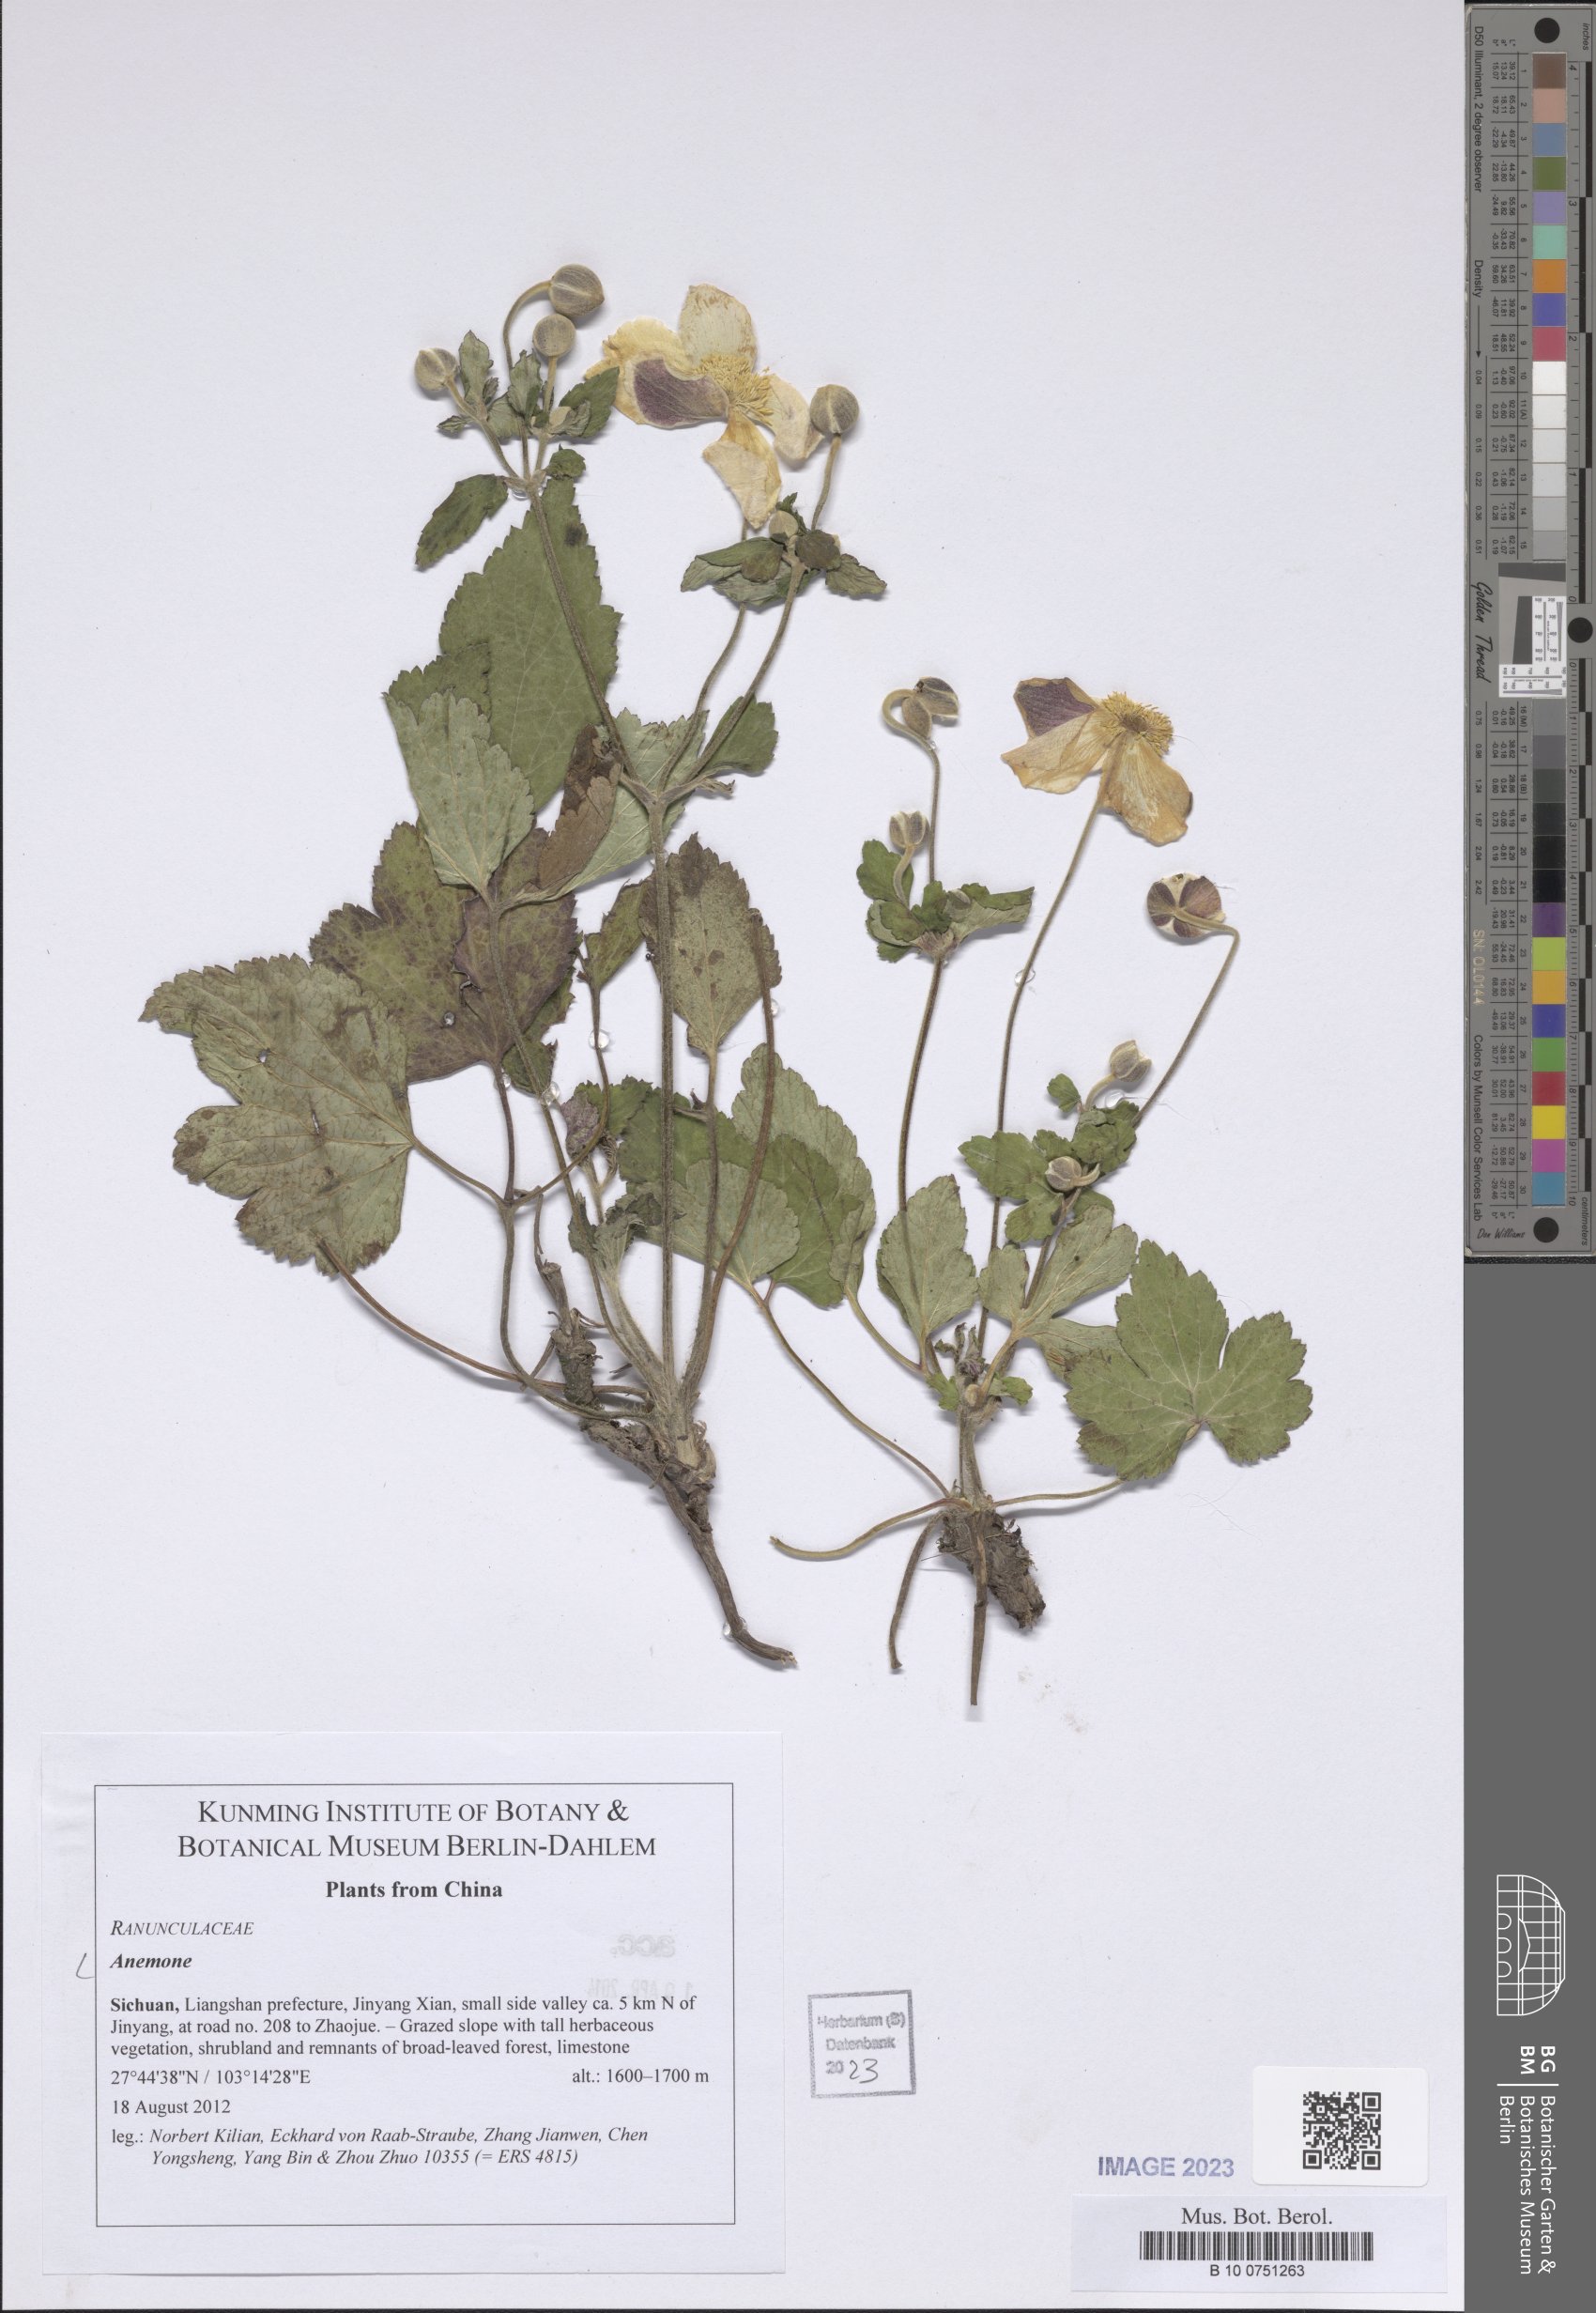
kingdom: Plantae
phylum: Tracheophyta
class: Magnoliopsida
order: Ranunculales
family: Ranunculaceae
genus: Anemone
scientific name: Anemone
